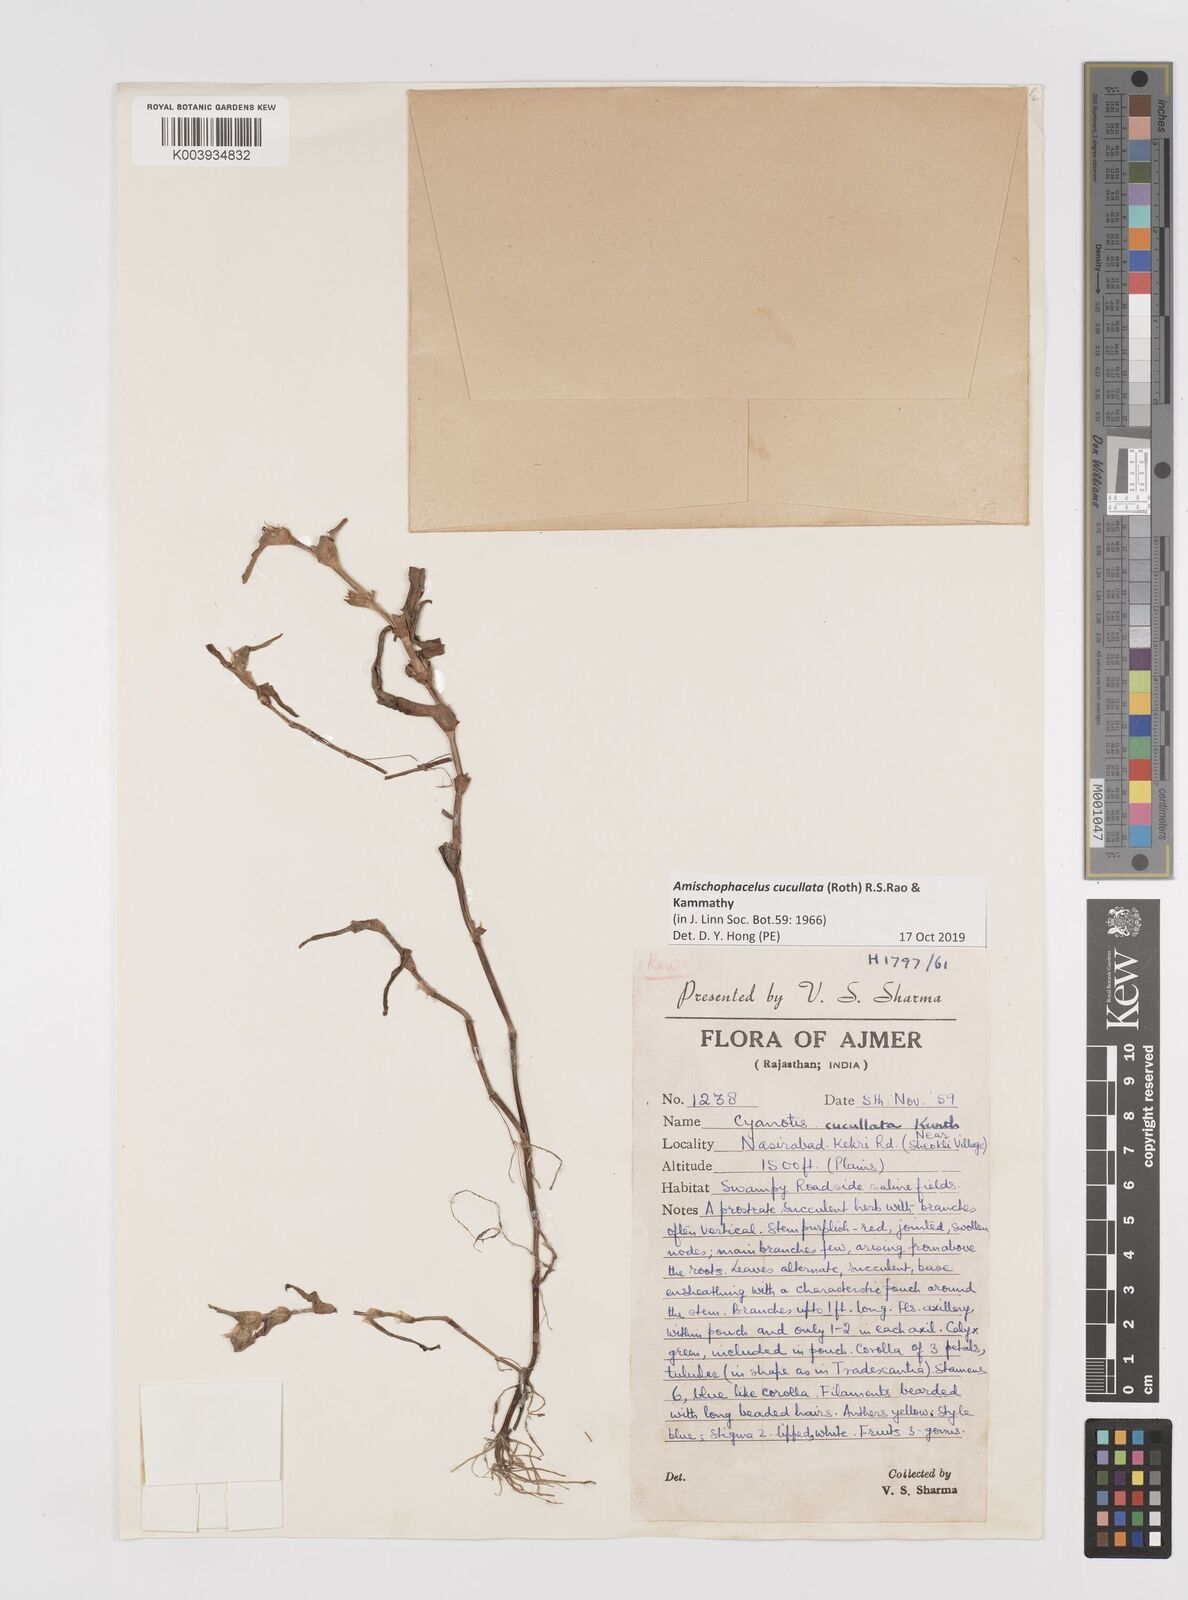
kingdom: Plantae
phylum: Tracheophyta
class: Liliopsida
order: Commelinales
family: Commelinaceae
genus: Cyanotis
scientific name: Cyanotis cucullata
